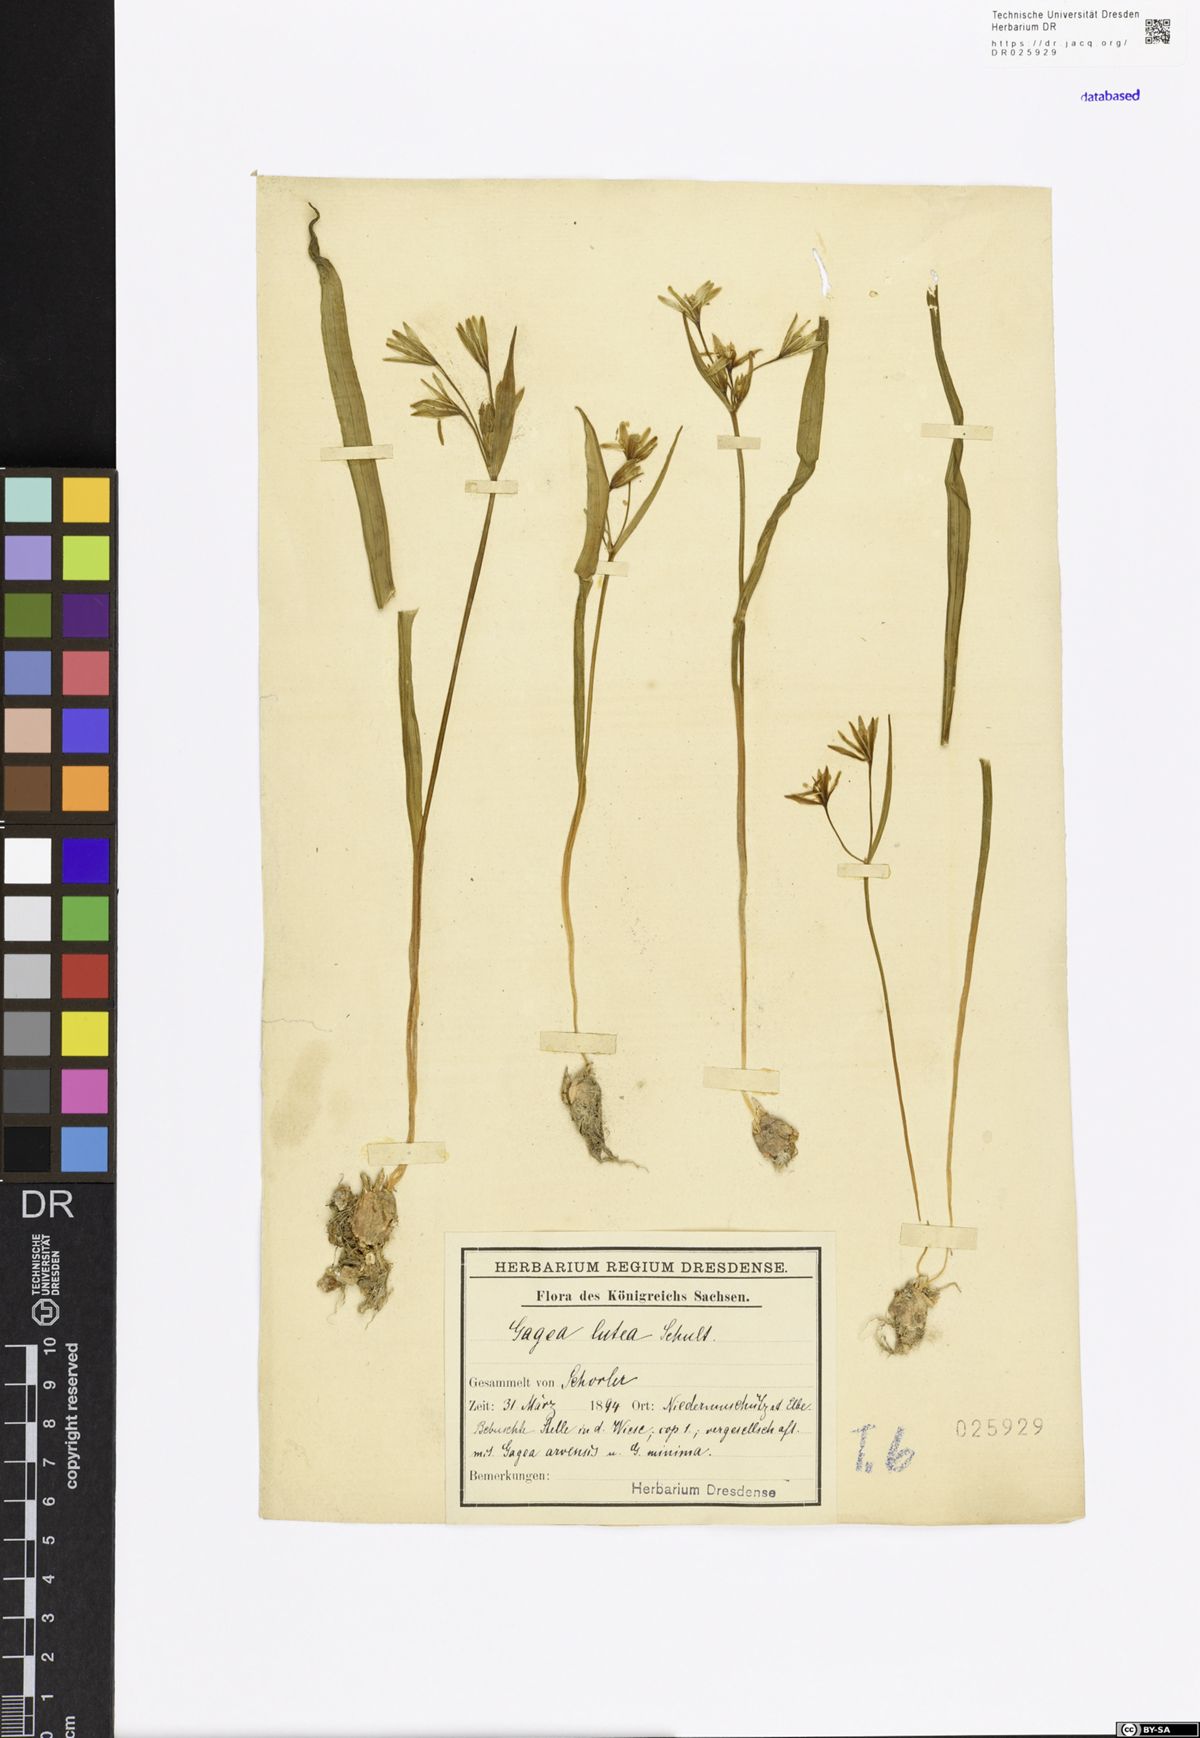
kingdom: Plantae
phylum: Tracheophyta
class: Liliopsida
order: Liliales
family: Liliaceae
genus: Gagea
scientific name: Gagea lutea
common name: Yellow star-of-bethlehem
